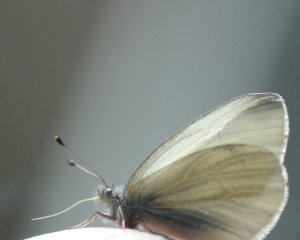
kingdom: Animalia
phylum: Arthropoda
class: Insecta
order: Lepidoptera
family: Pieridae
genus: Pieris
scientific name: Pieris virginiensis
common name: West Virginia White
